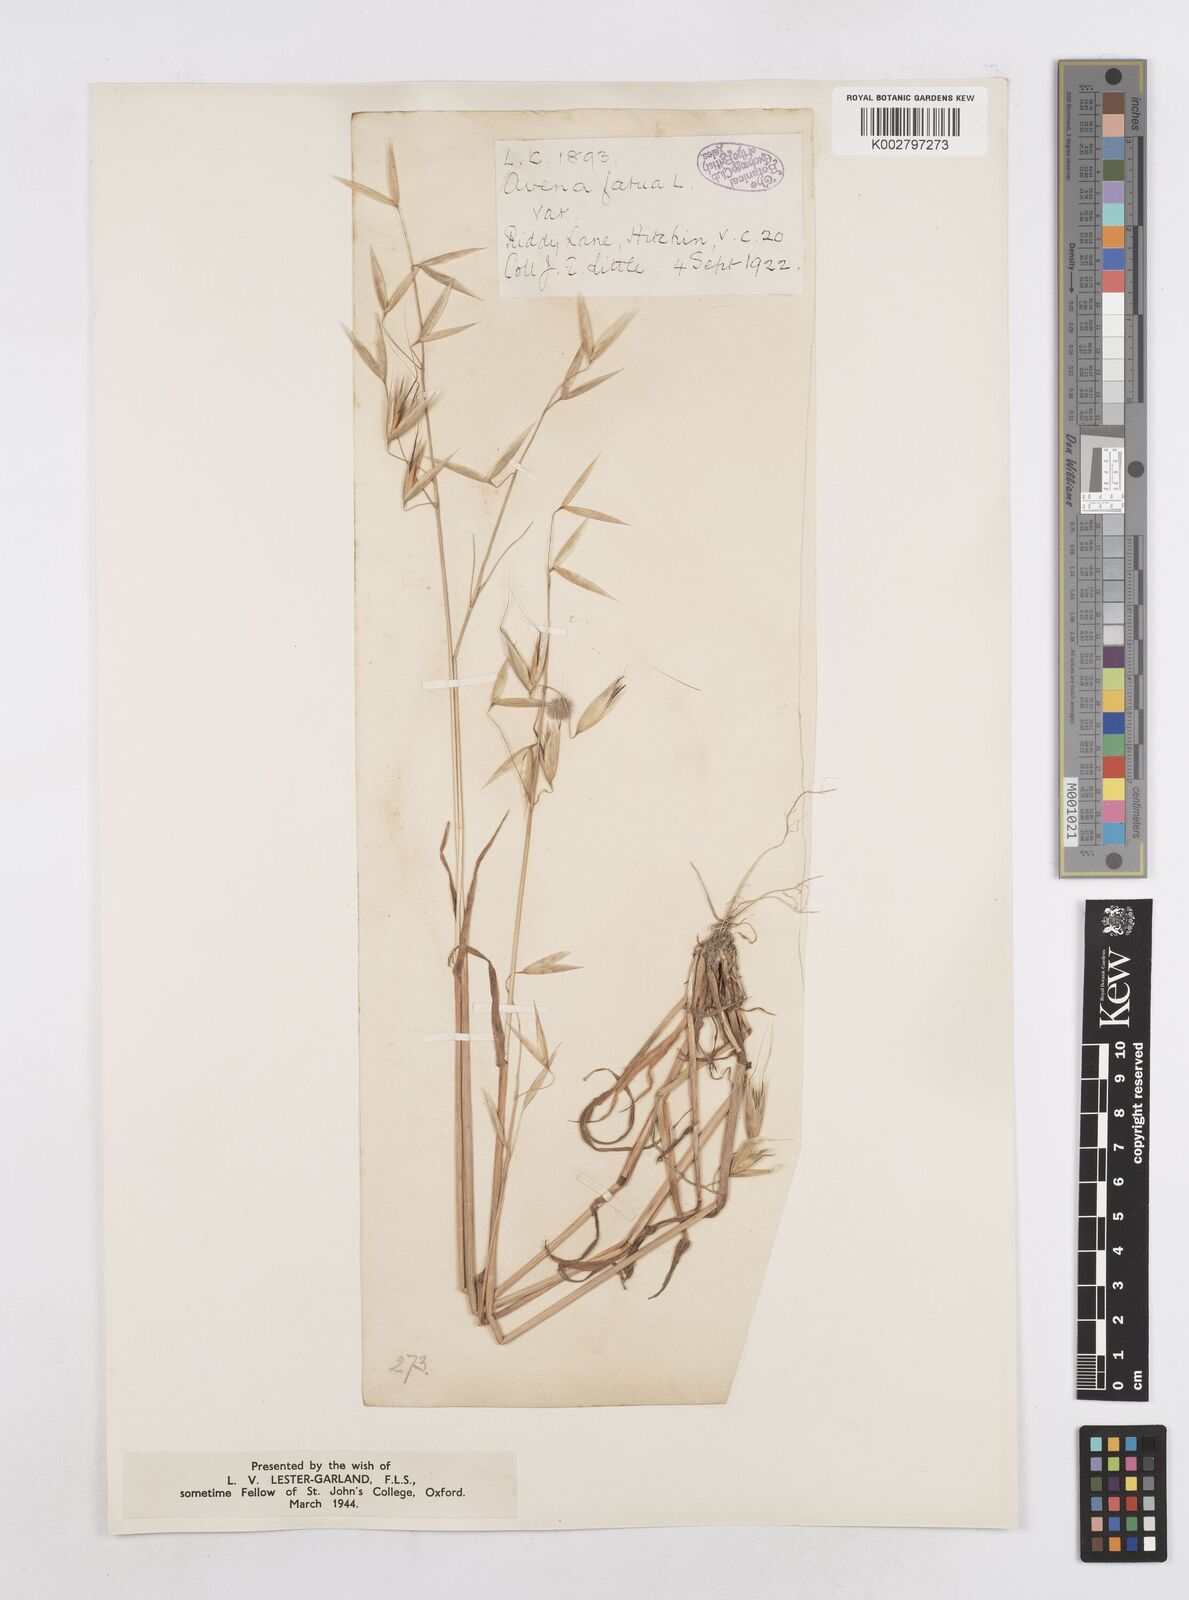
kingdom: Plantae
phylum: Tracheophyta
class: Liliopsida
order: Poales
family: Poaceae
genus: Avena
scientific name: Avena fatua
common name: Wild oat
